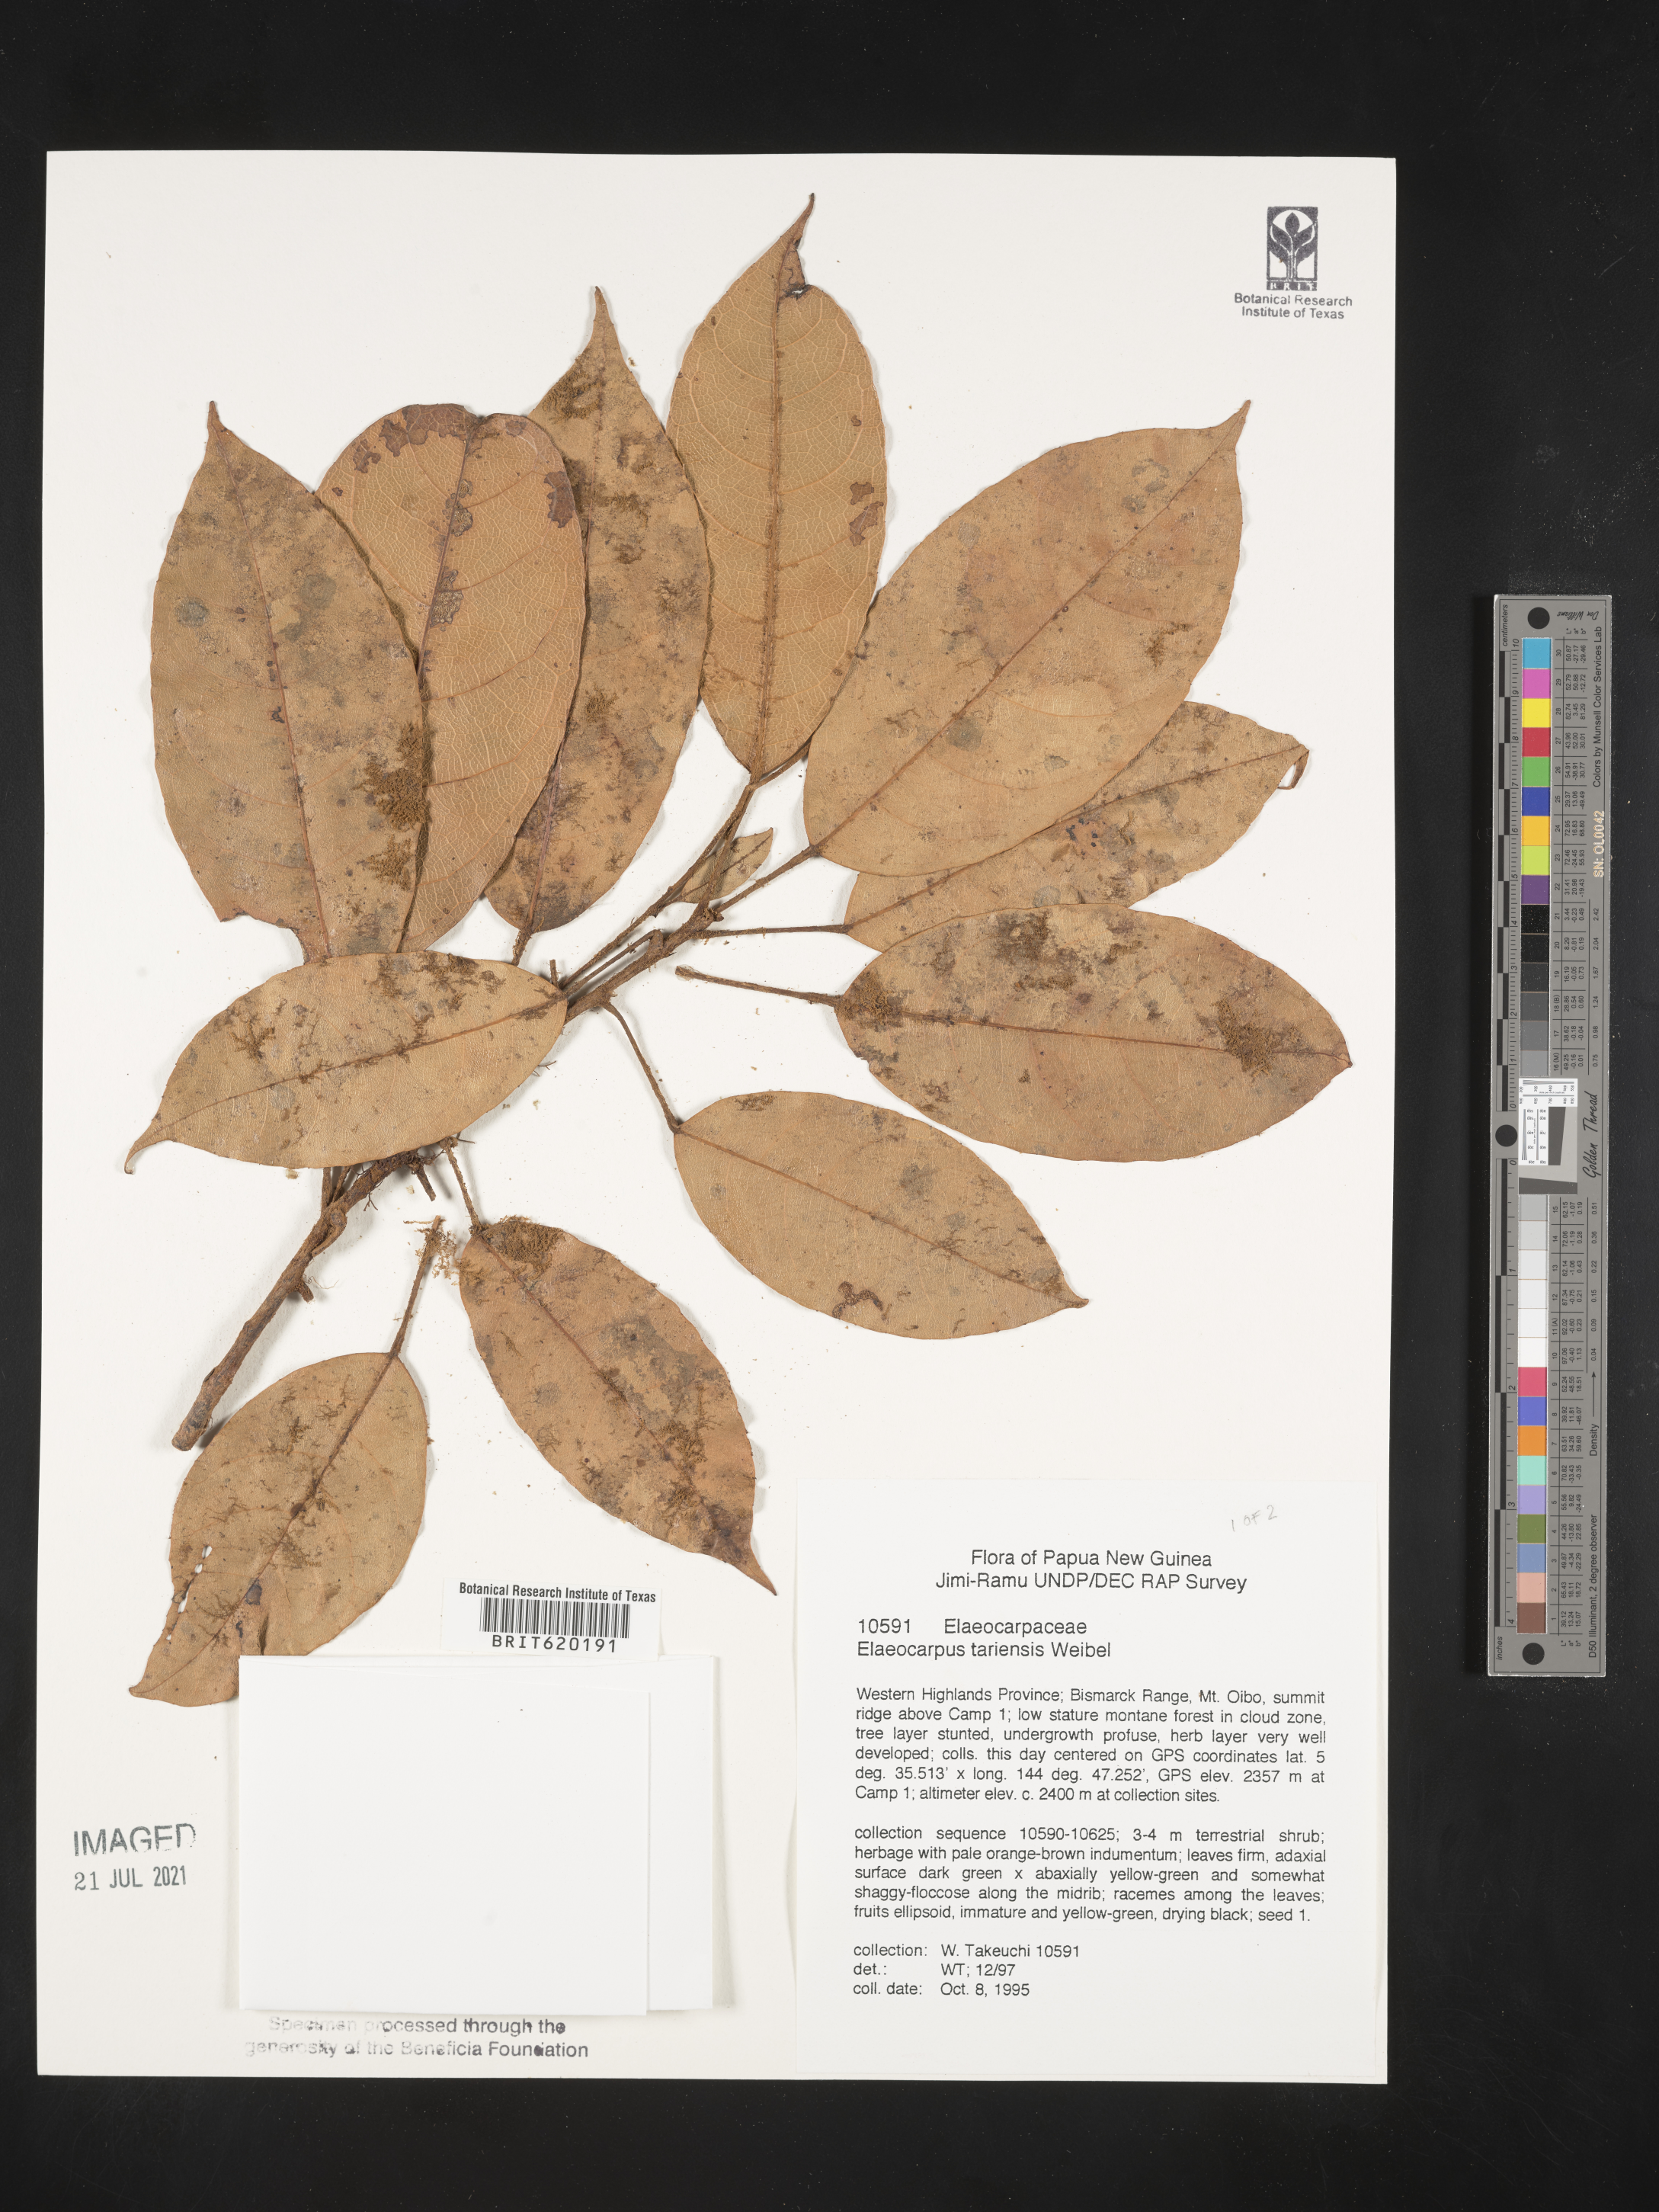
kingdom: Plantae
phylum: Tracheophyta
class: Magnoliopsida
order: Oxalidales
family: Elaeocarpaceae
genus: Elaeocarpus
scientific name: Elaeocarpus tariensis
